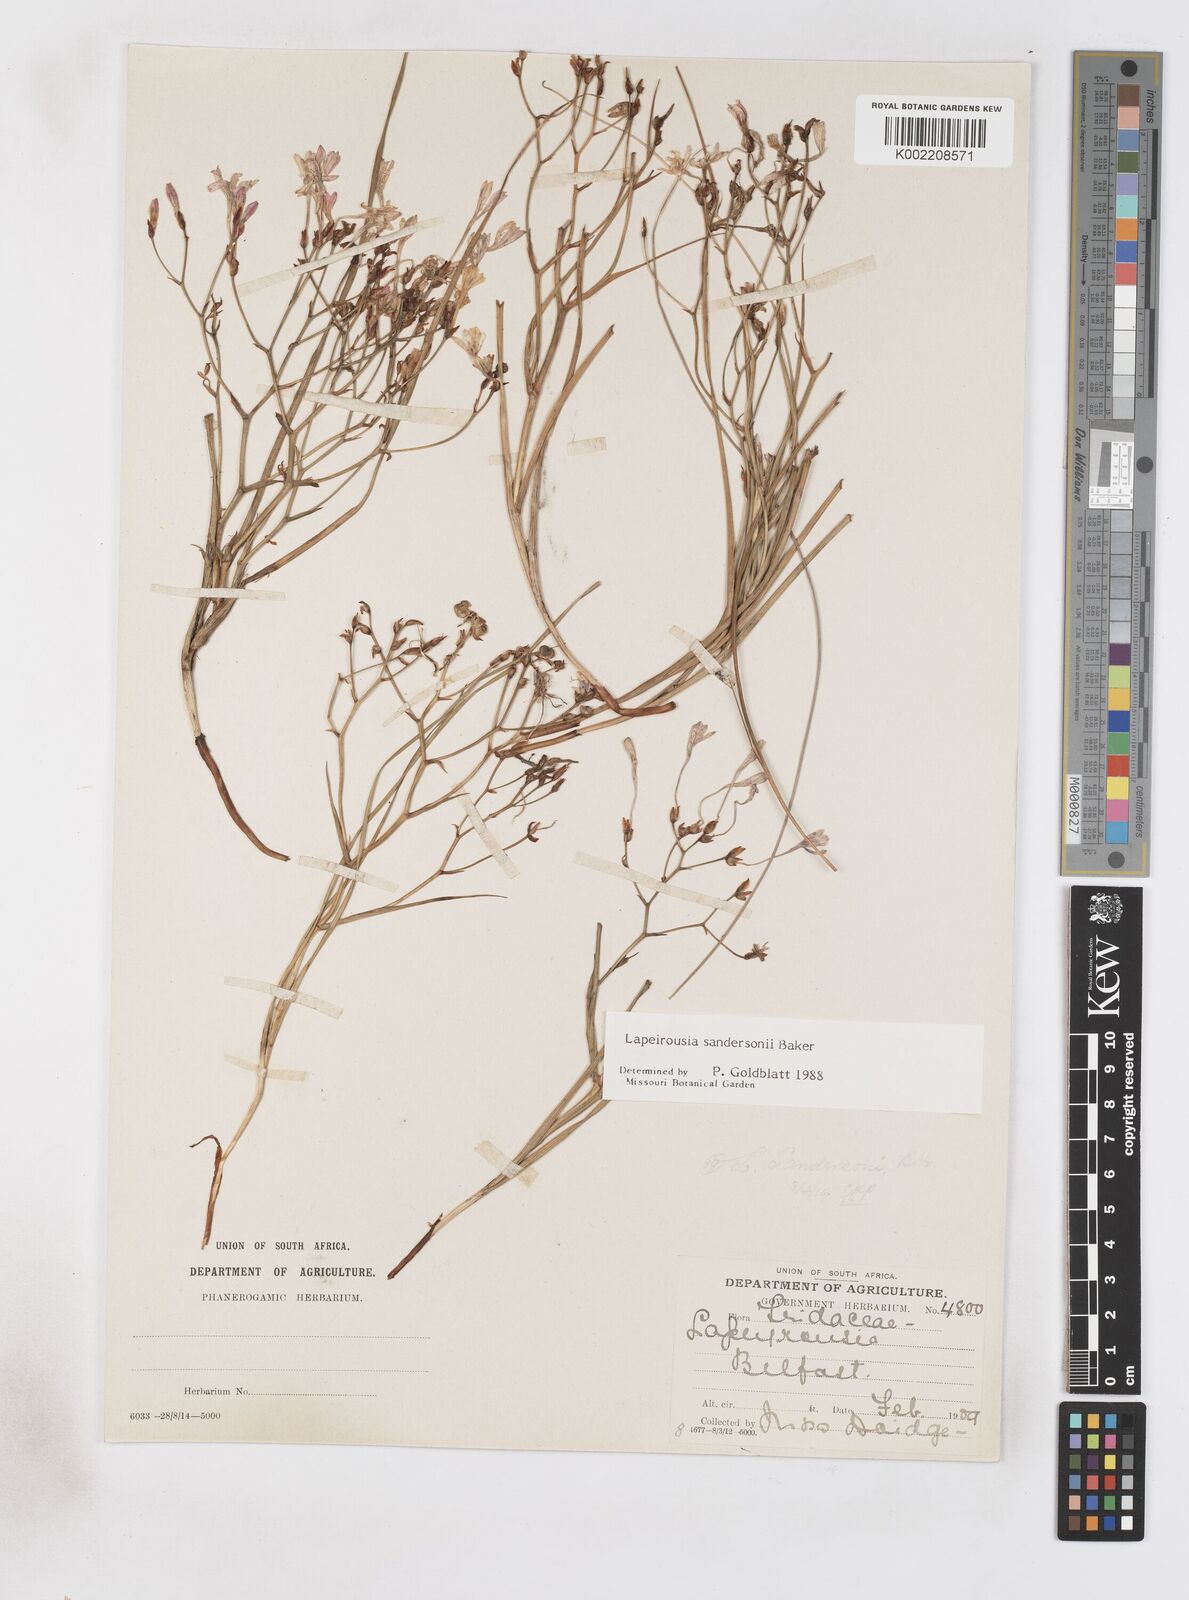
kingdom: Plantae
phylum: Tracheophyta
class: Liliopsida
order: Asparagales
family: Iridaceae
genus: Afrosolen
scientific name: Afrosolen sandersonii
